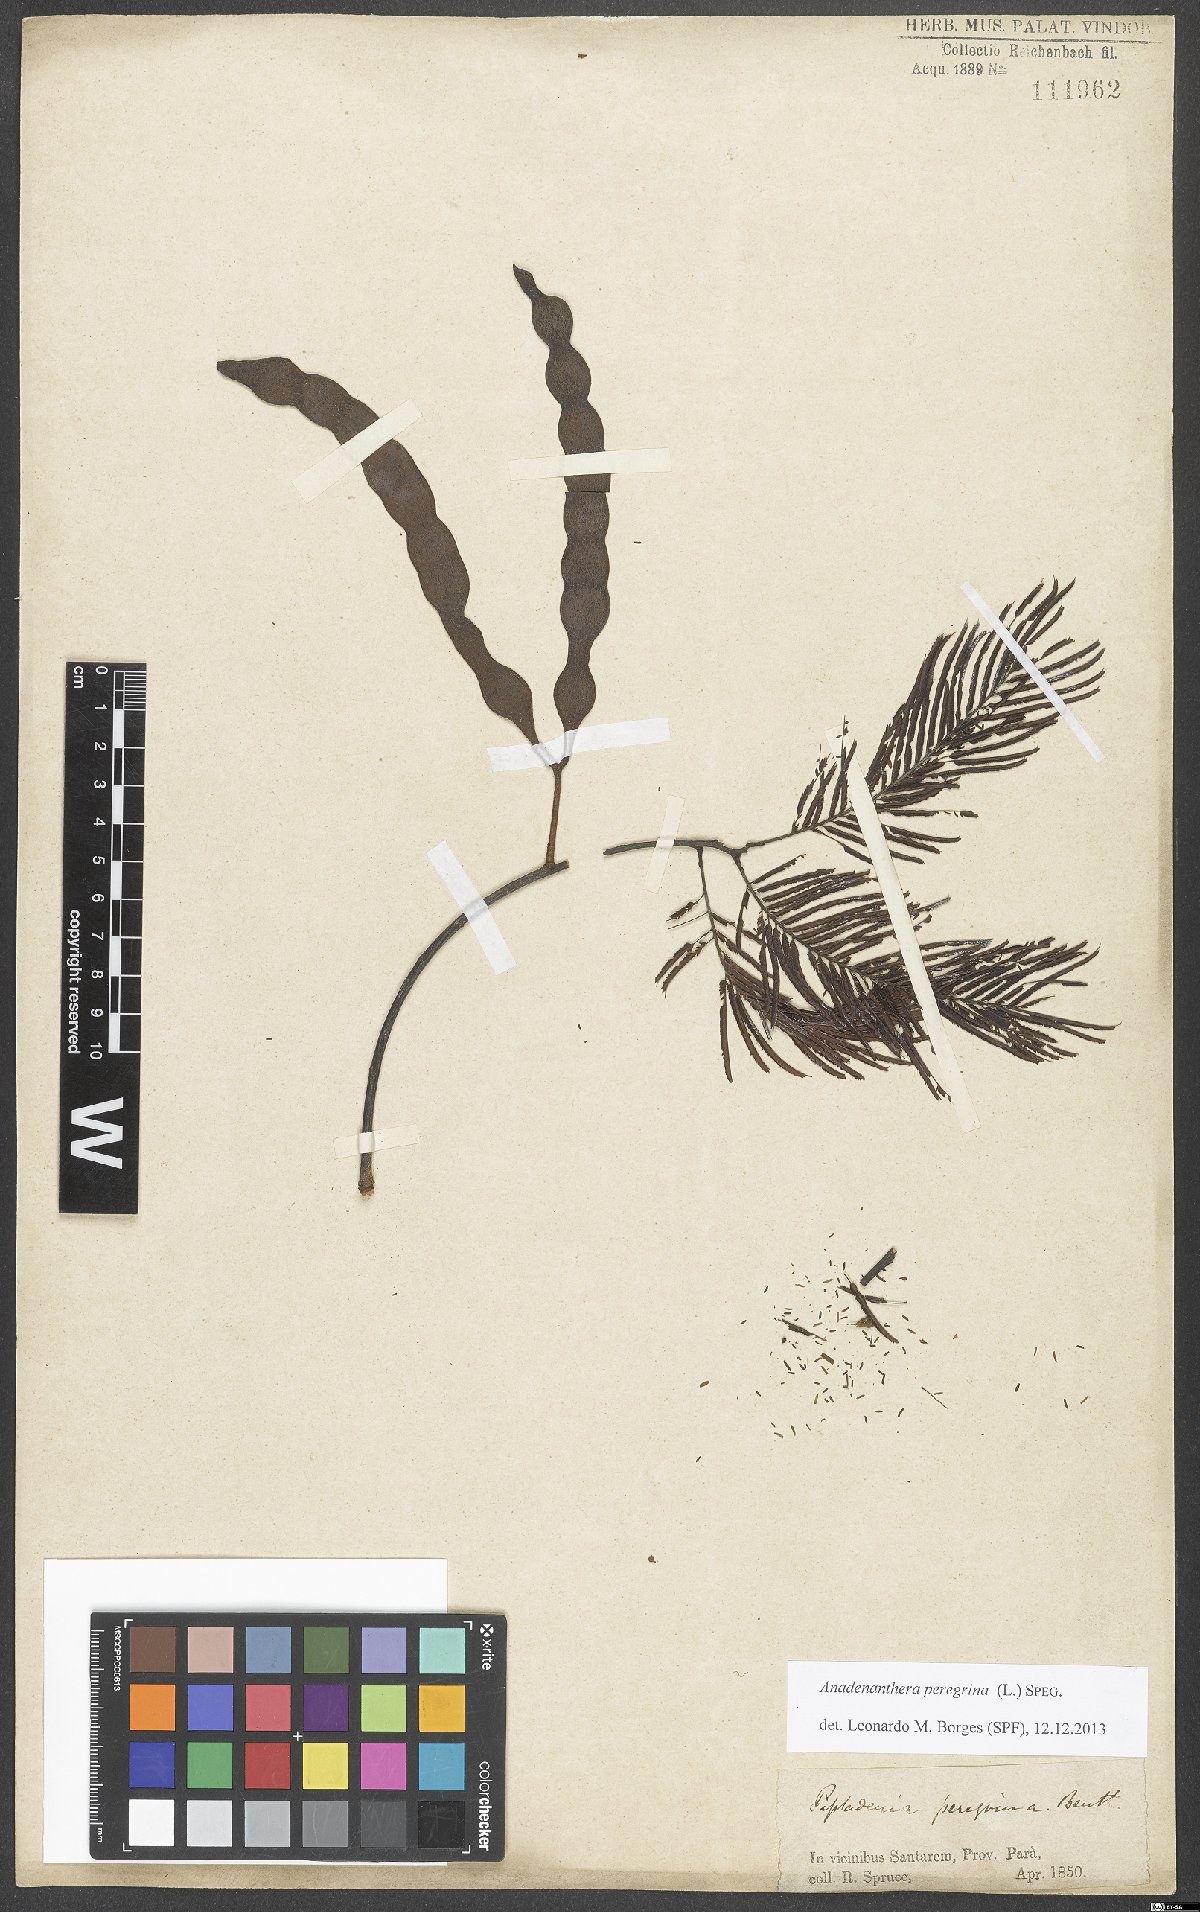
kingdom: Plantae
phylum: Tracheophyta
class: Magnoliopsida
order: Fabales
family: Fabaceae
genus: Anadenanthera
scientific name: Anadenanthera peregrina
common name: Cohoba
